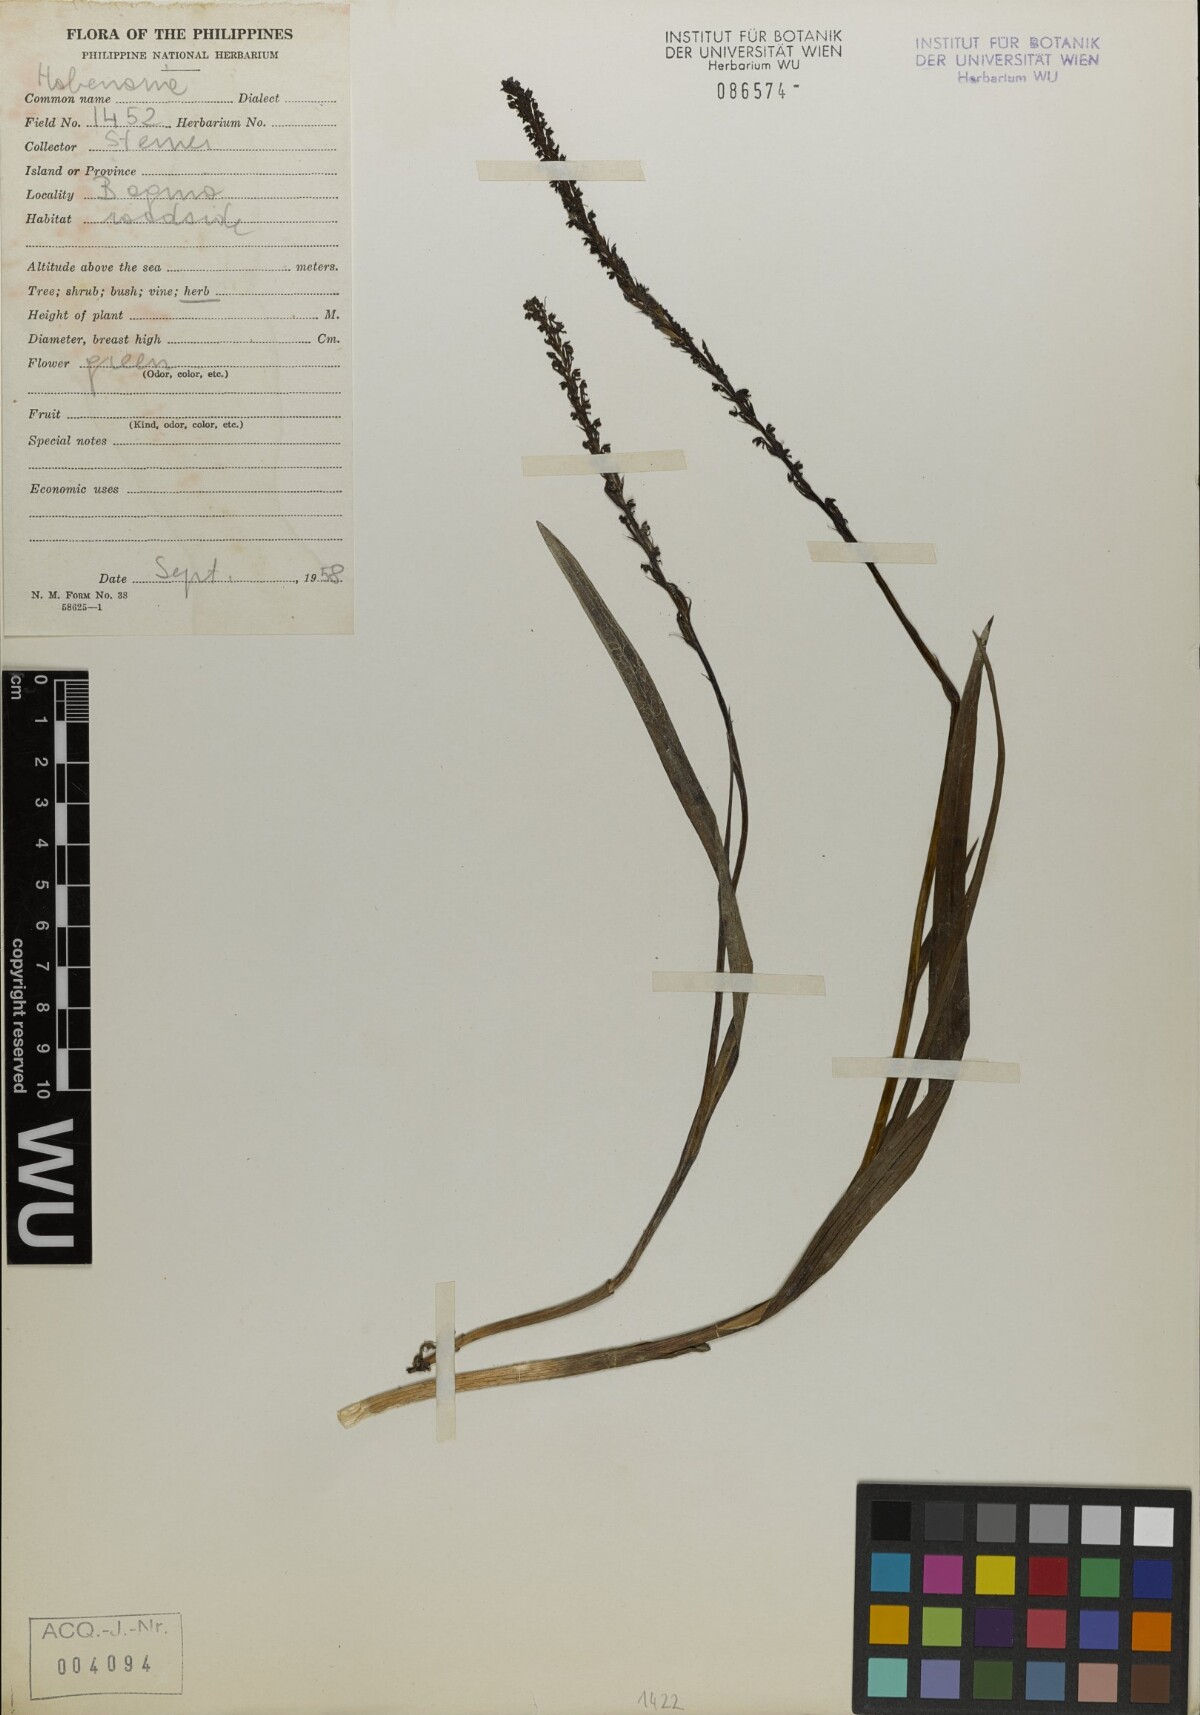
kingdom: Plantae
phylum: Tracheophyta
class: Liliopsida
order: Asparagales
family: Orchidaceae
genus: Habenaria
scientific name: Habenaria
